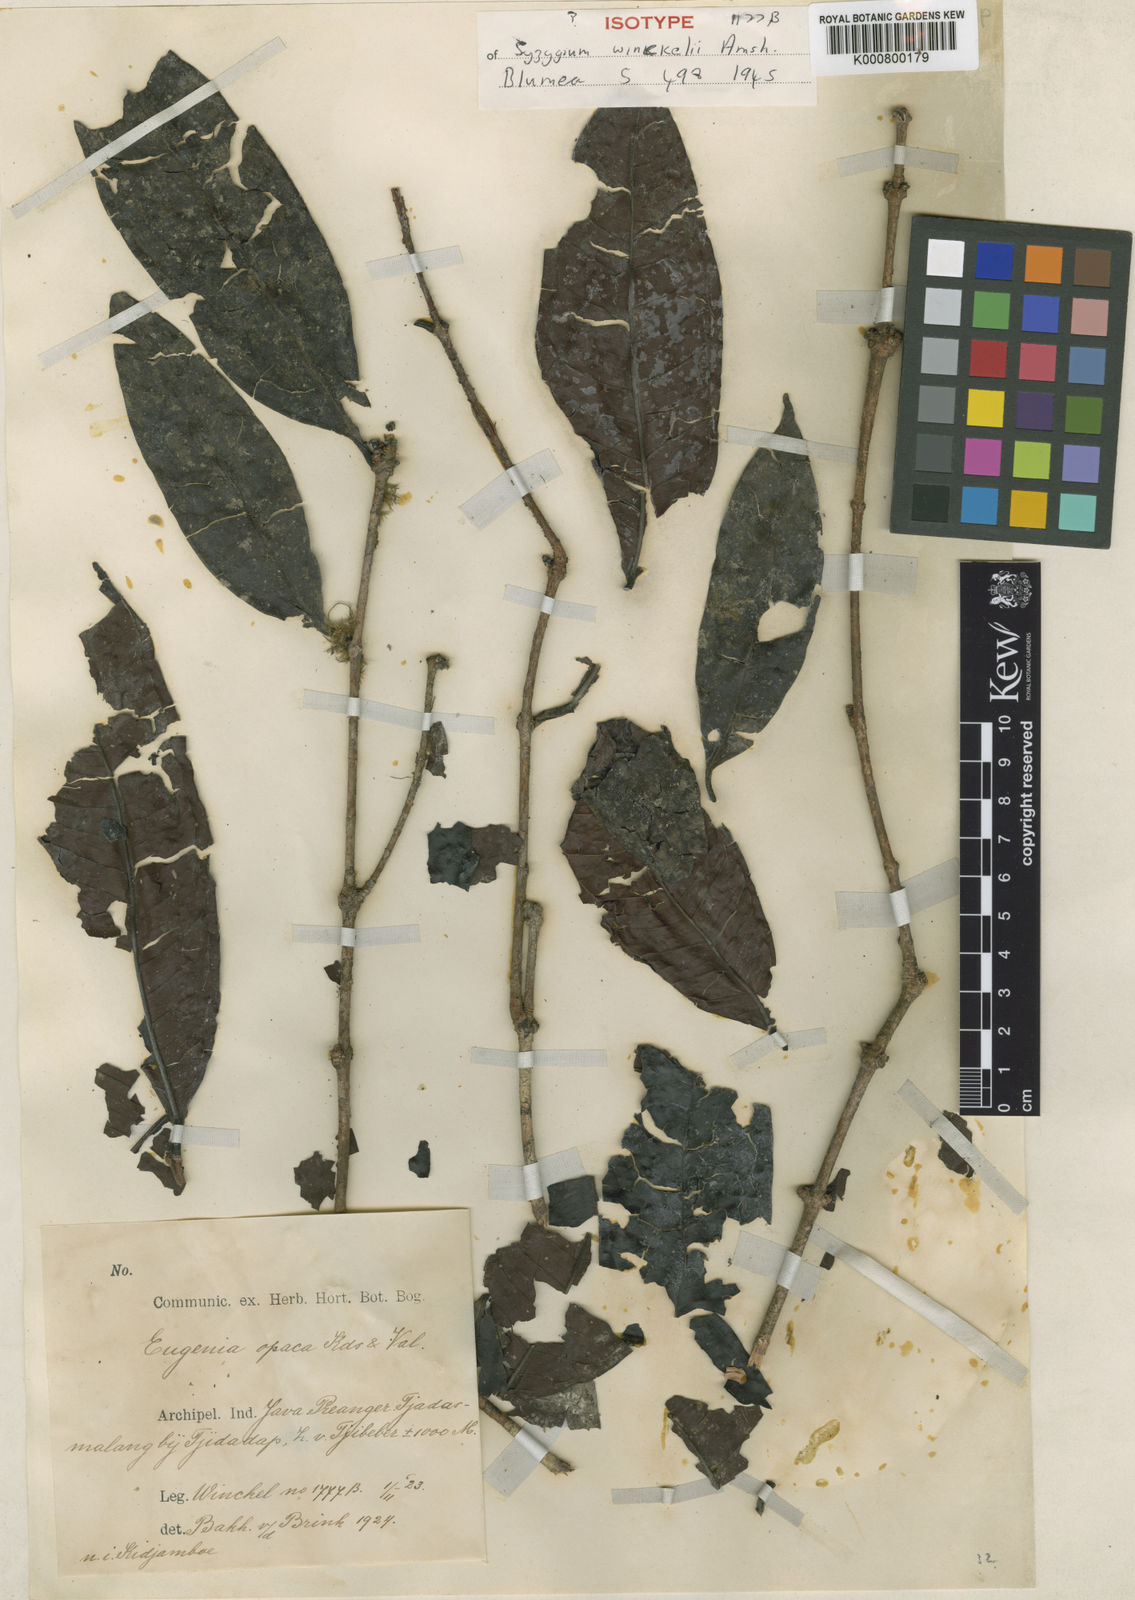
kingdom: Plantae
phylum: Tracheophyta
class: Magnoliopsida
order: Myrtales
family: Myrtaceae
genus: Syzygium
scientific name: Syzygium winckelii
